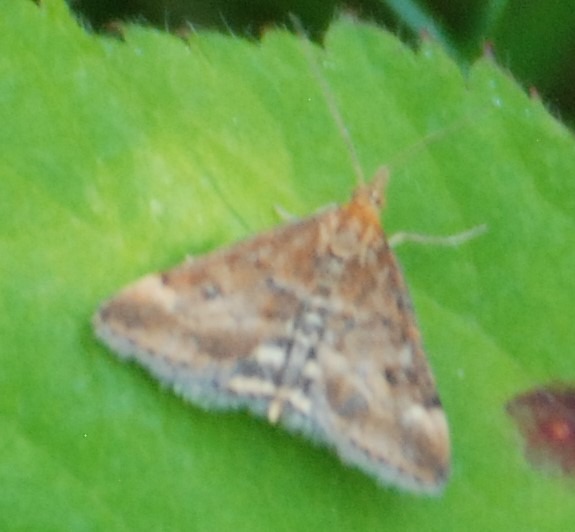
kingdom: Animalia
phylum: Arthropoda
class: Insecta
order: Lepidoptera
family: Crambidae
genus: Pyrausta
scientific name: Pyrausta despicata
